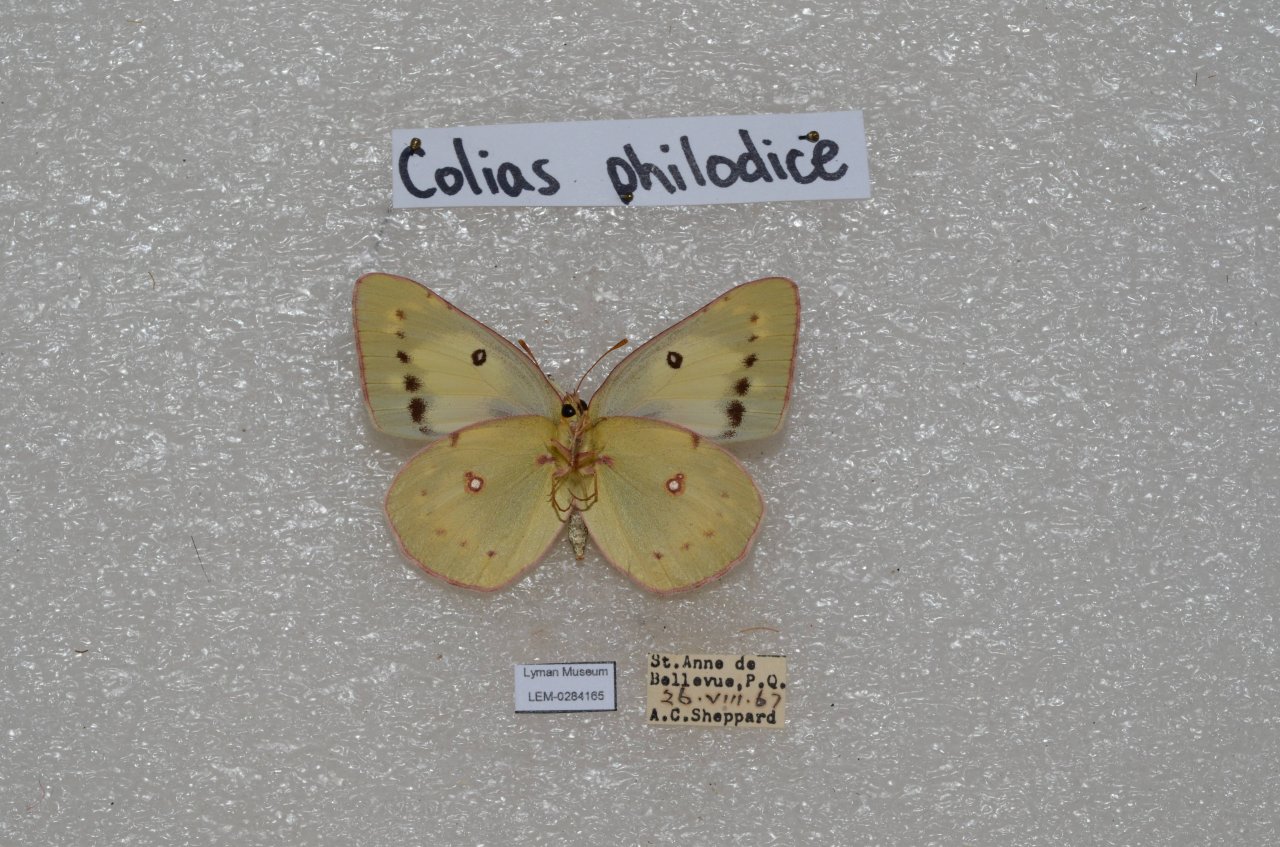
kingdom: Animalia
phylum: Arthropoda
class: Insecta
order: Lepidoptera
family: Pieridae
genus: Colias
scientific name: Colias philodice
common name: Clouded Sulphur
